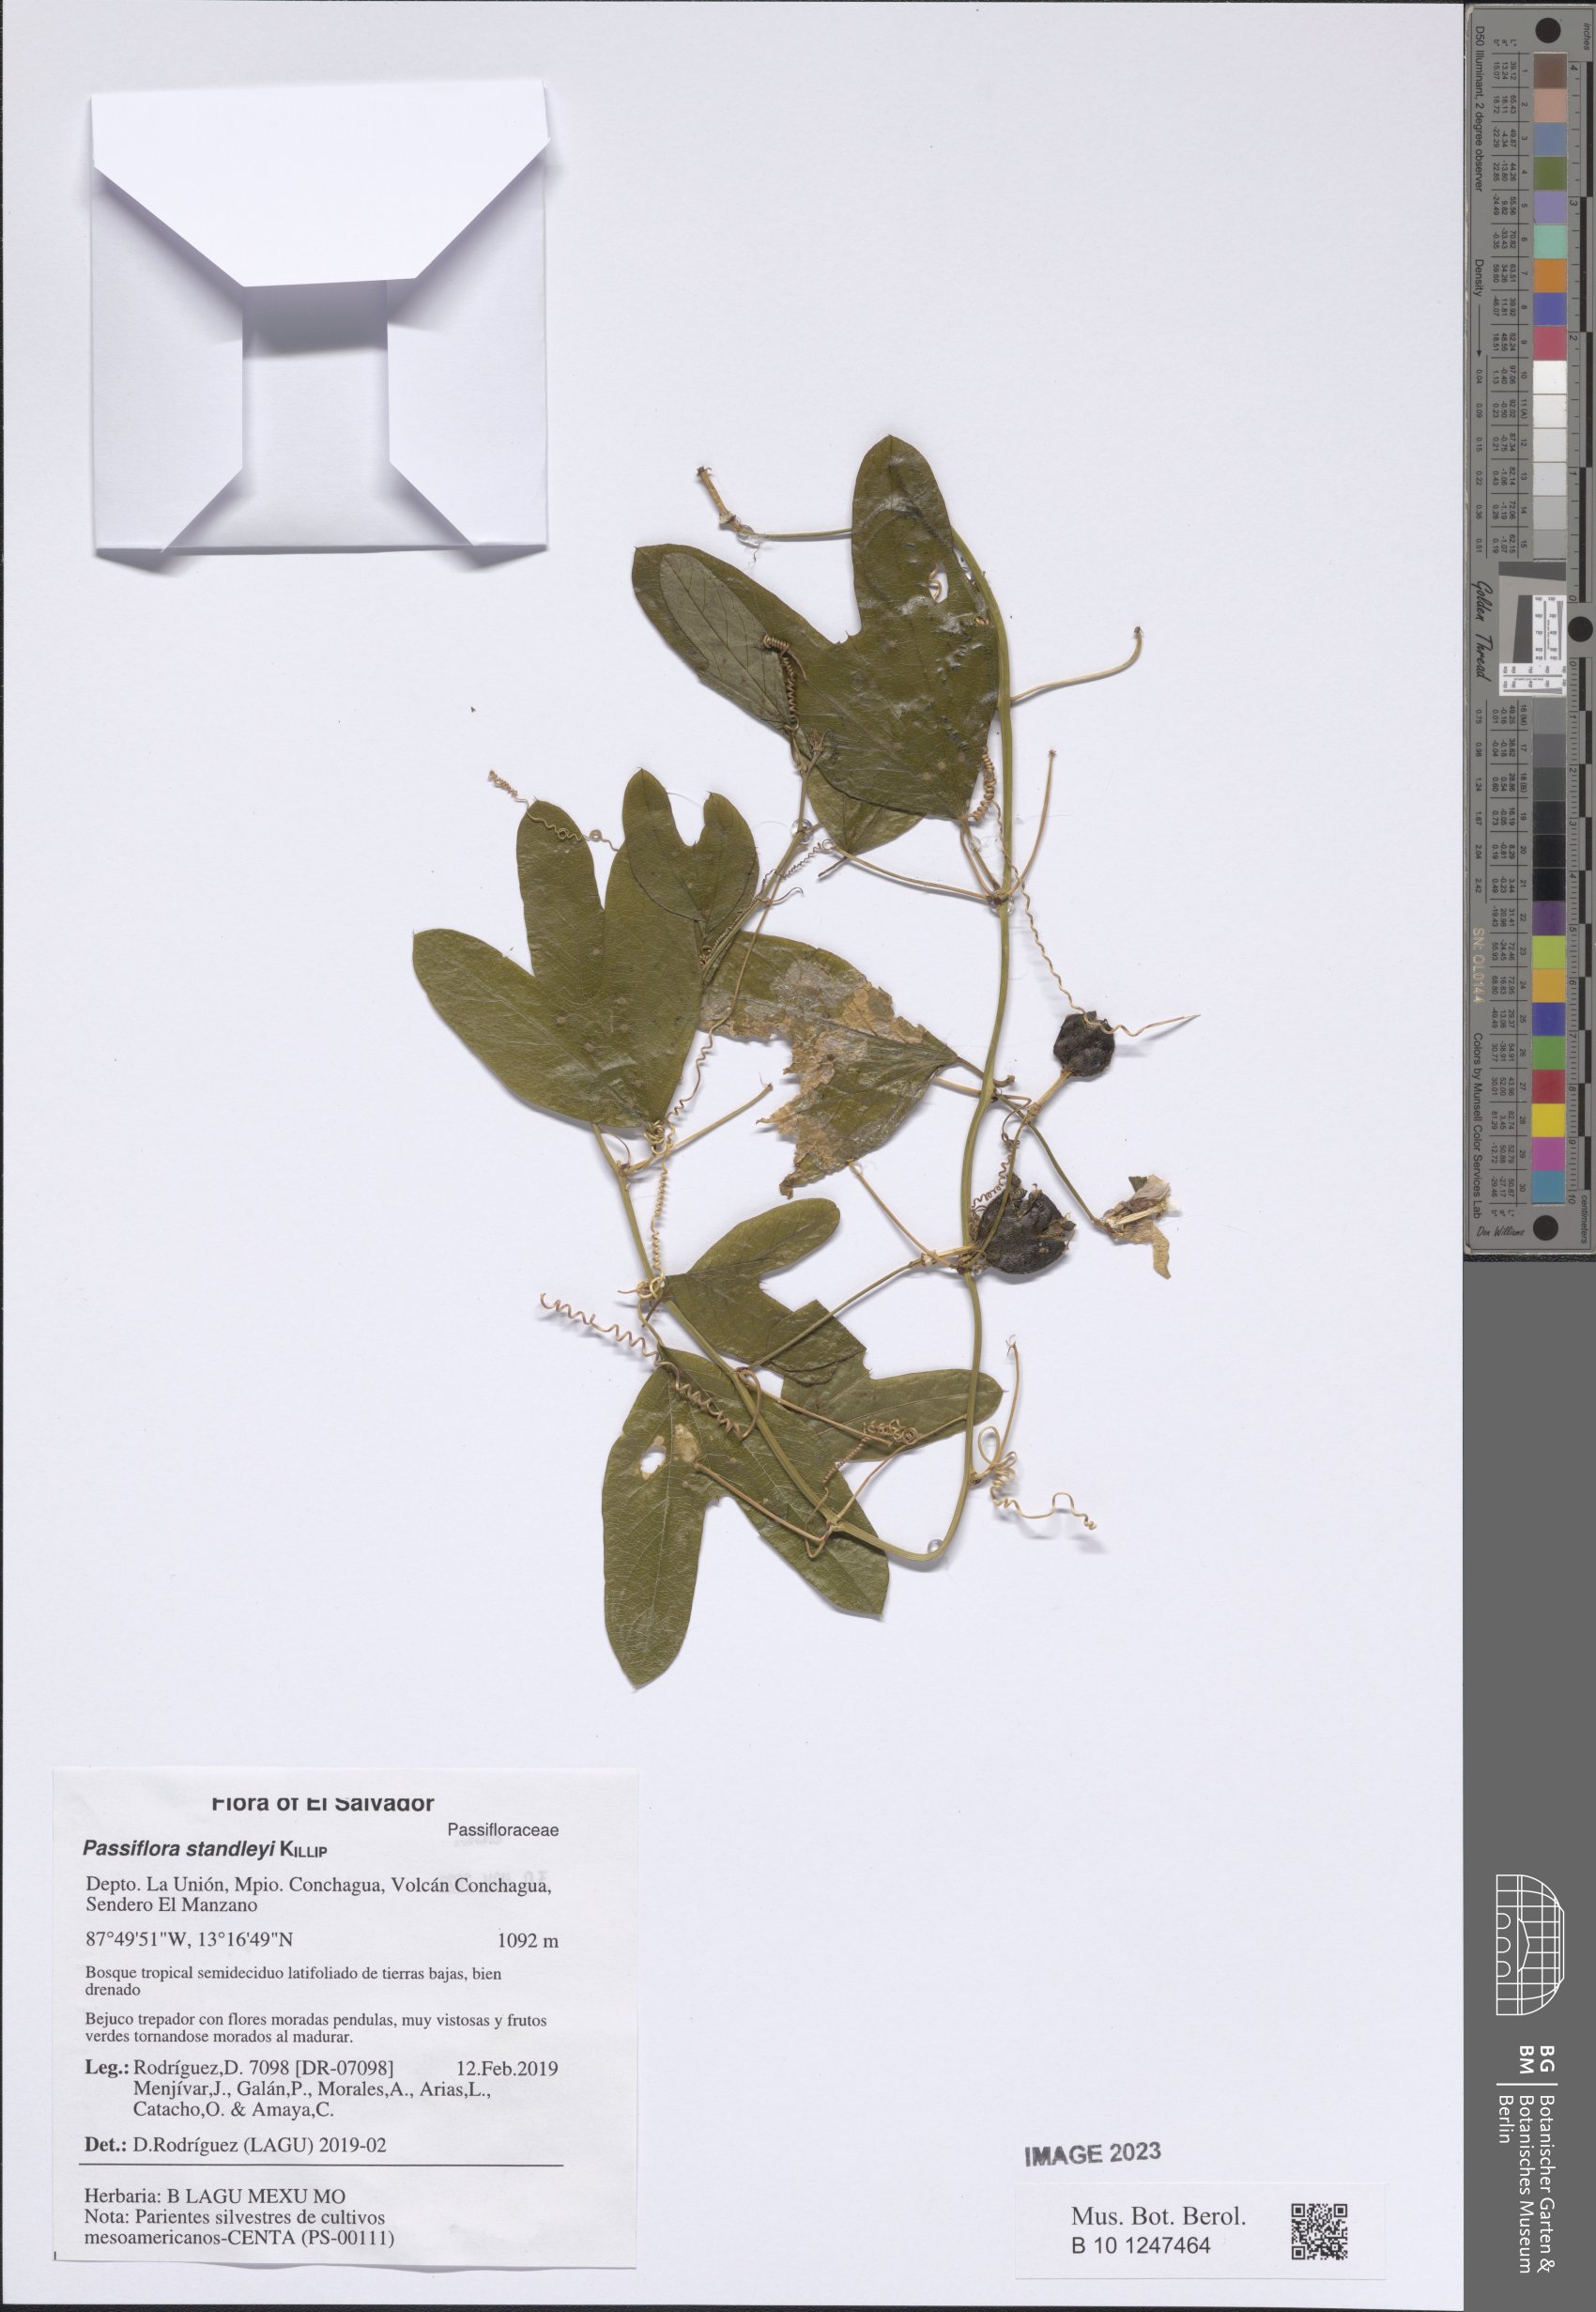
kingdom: Plantae
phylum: Tracheophyta
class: Magnoliopsida
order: Malpighiales
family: Passifloraceae
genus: Passiflora
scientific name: Passiflora standleyi
